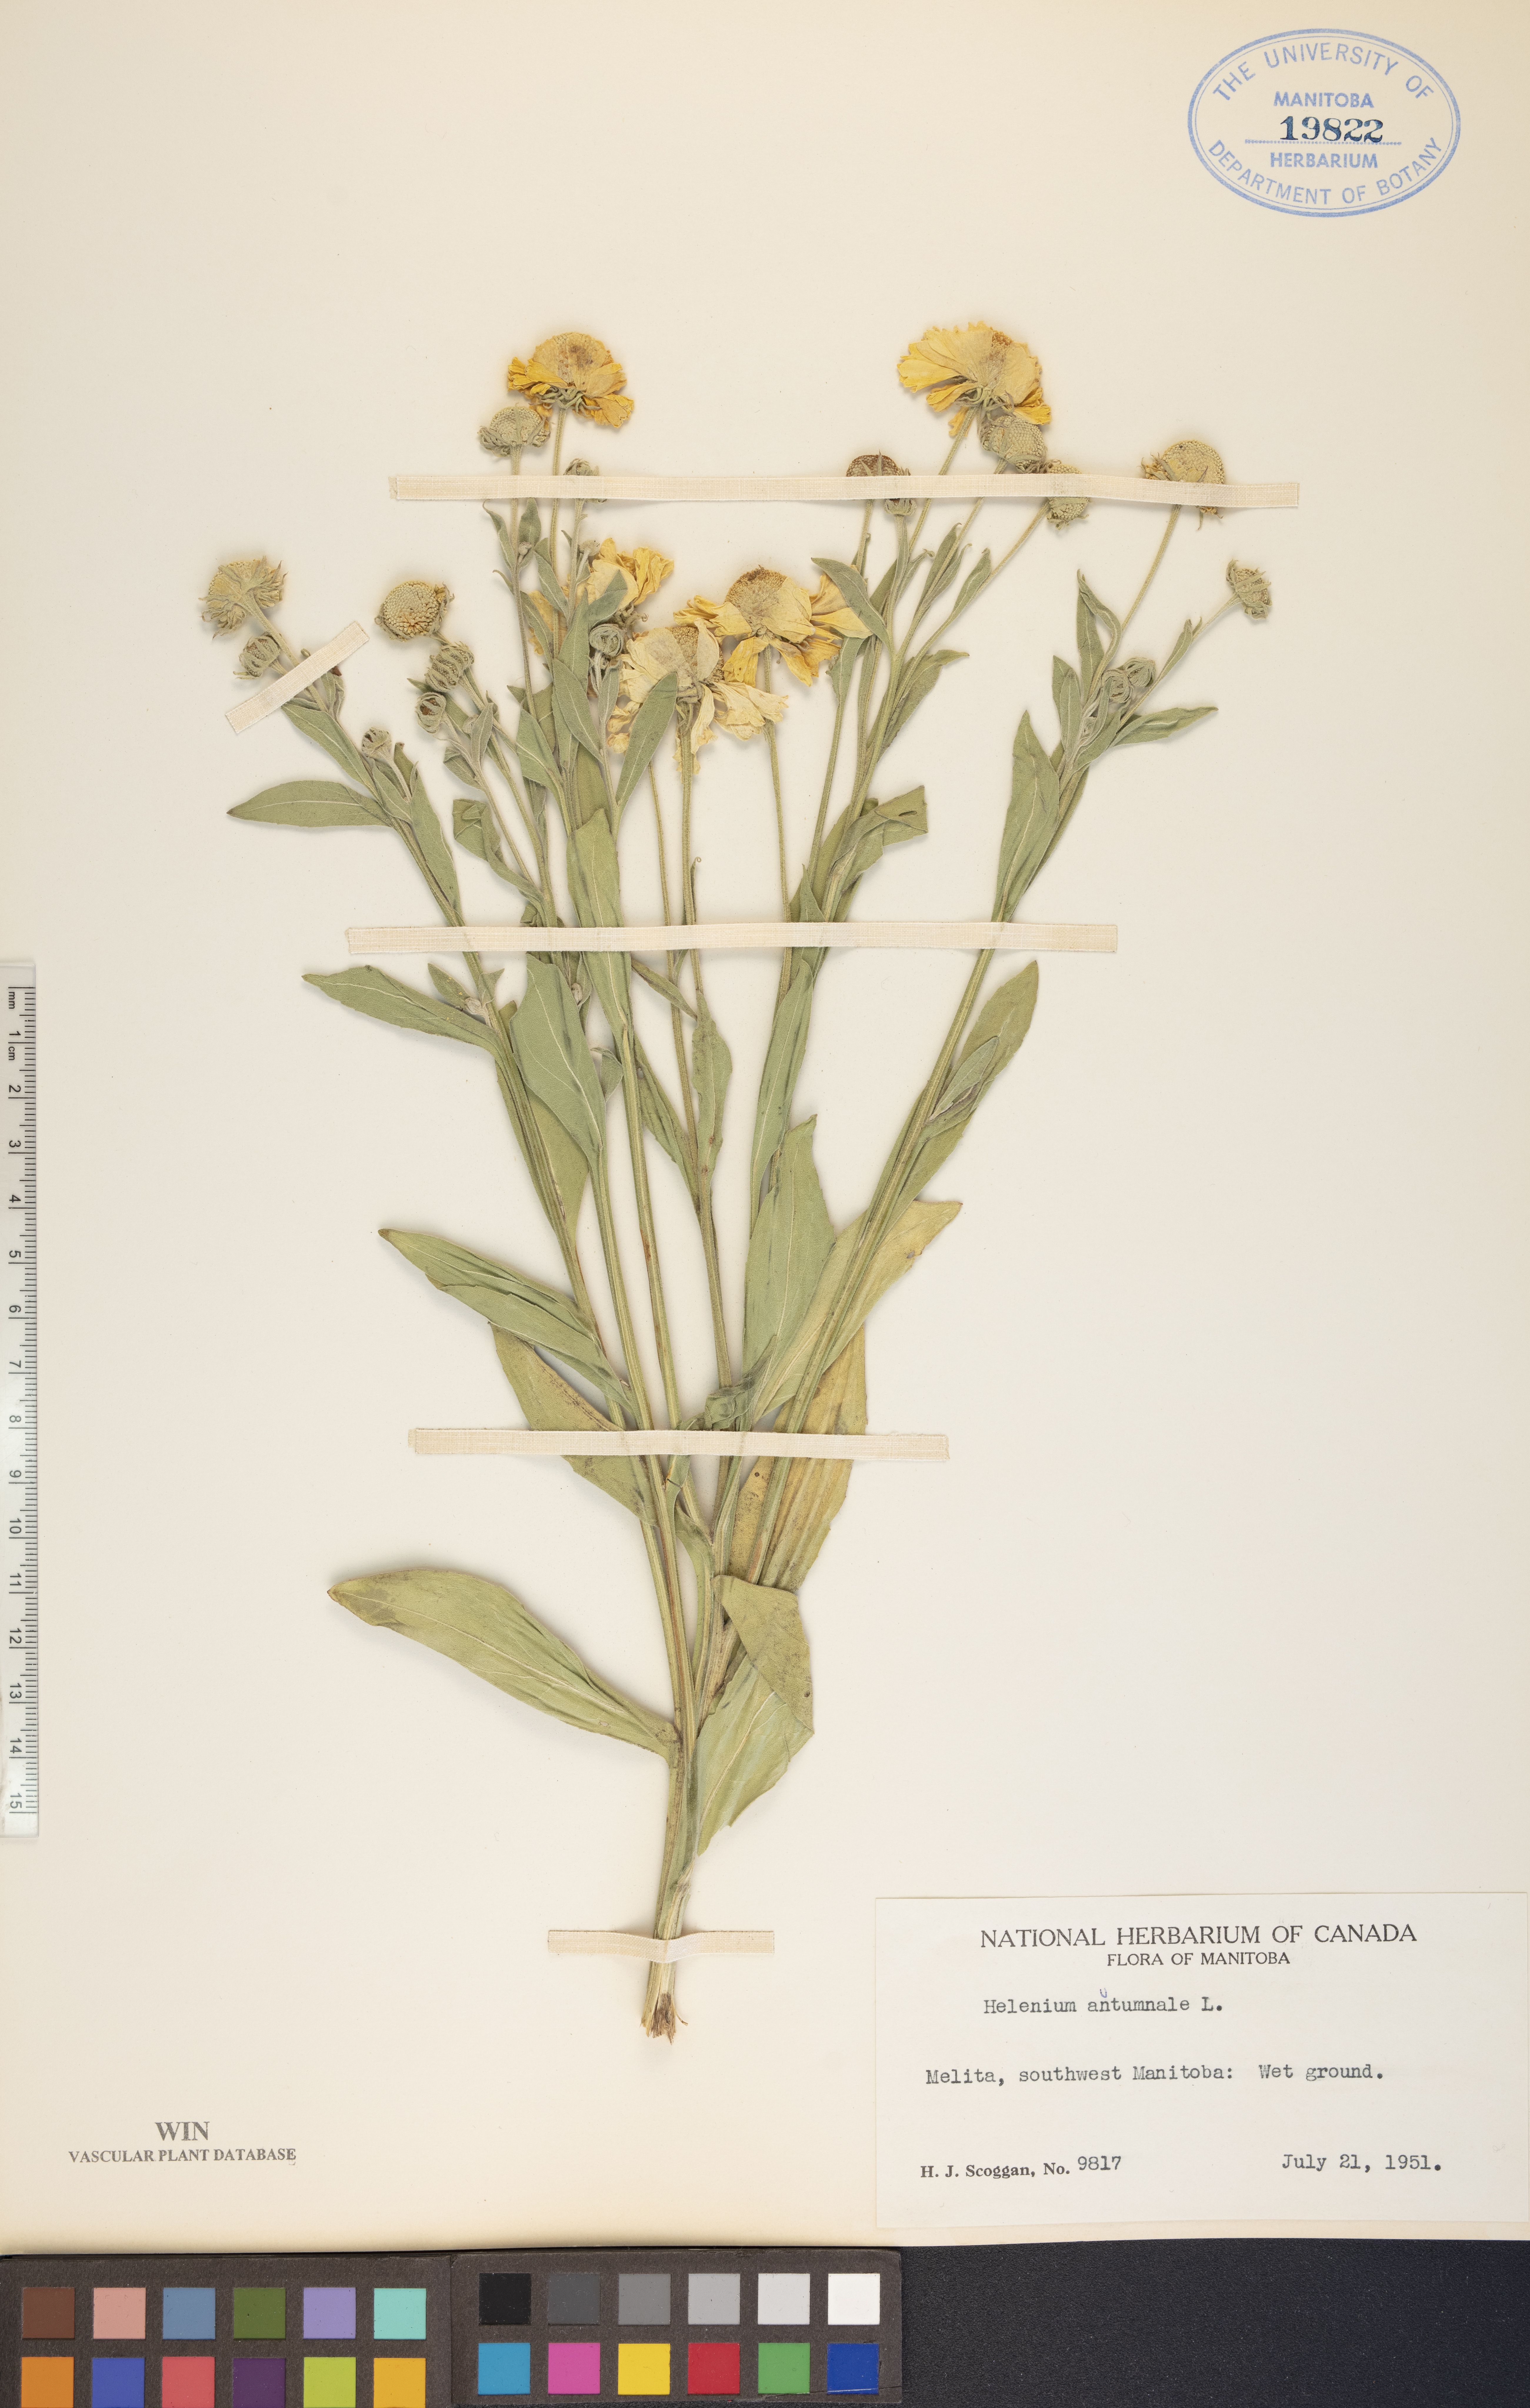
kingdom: Plantae
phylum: Tracheophyta
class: Magnoliopsida
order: Asterales
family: Asteraceae
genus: Helenium
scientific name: Helenium autumnale
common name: Sneezeweed
